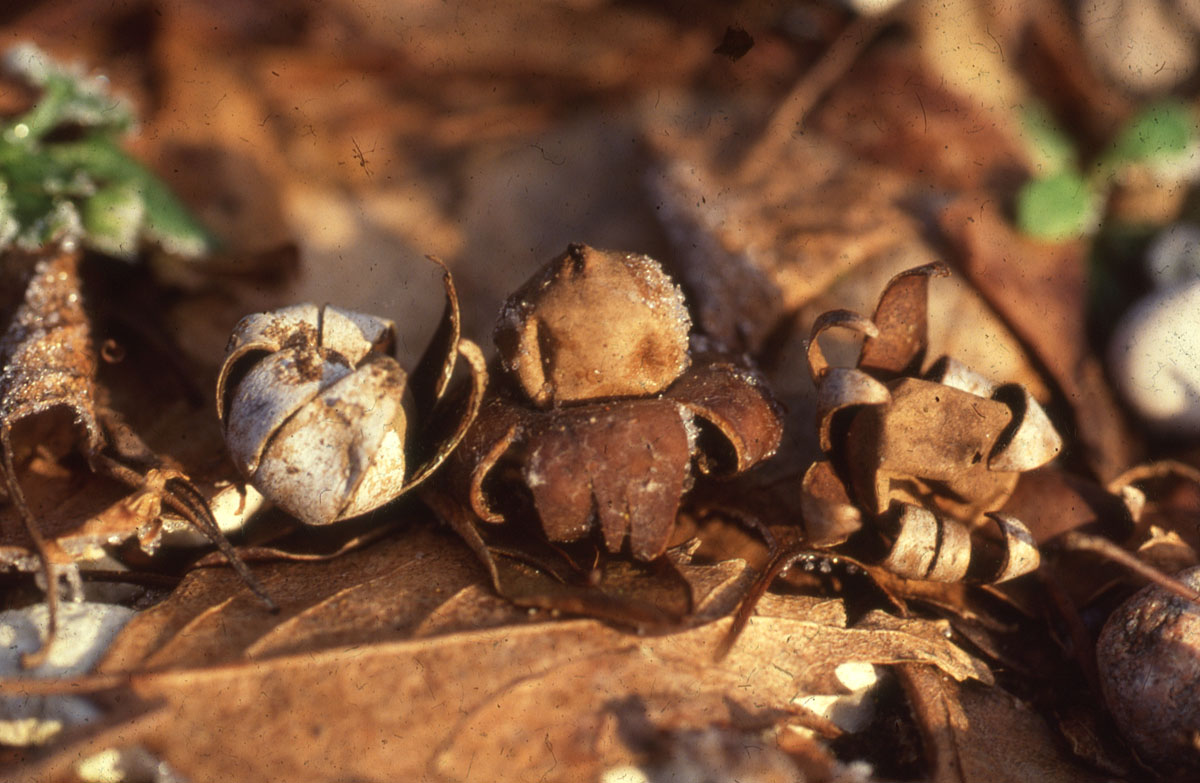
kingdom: Fungi
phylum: Basidiomycota
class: Agaricomycetes
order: Geastrales
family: Geastraceae
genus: Geastrum
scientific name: Geastrum floriforme
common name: blomster-stjernebold
